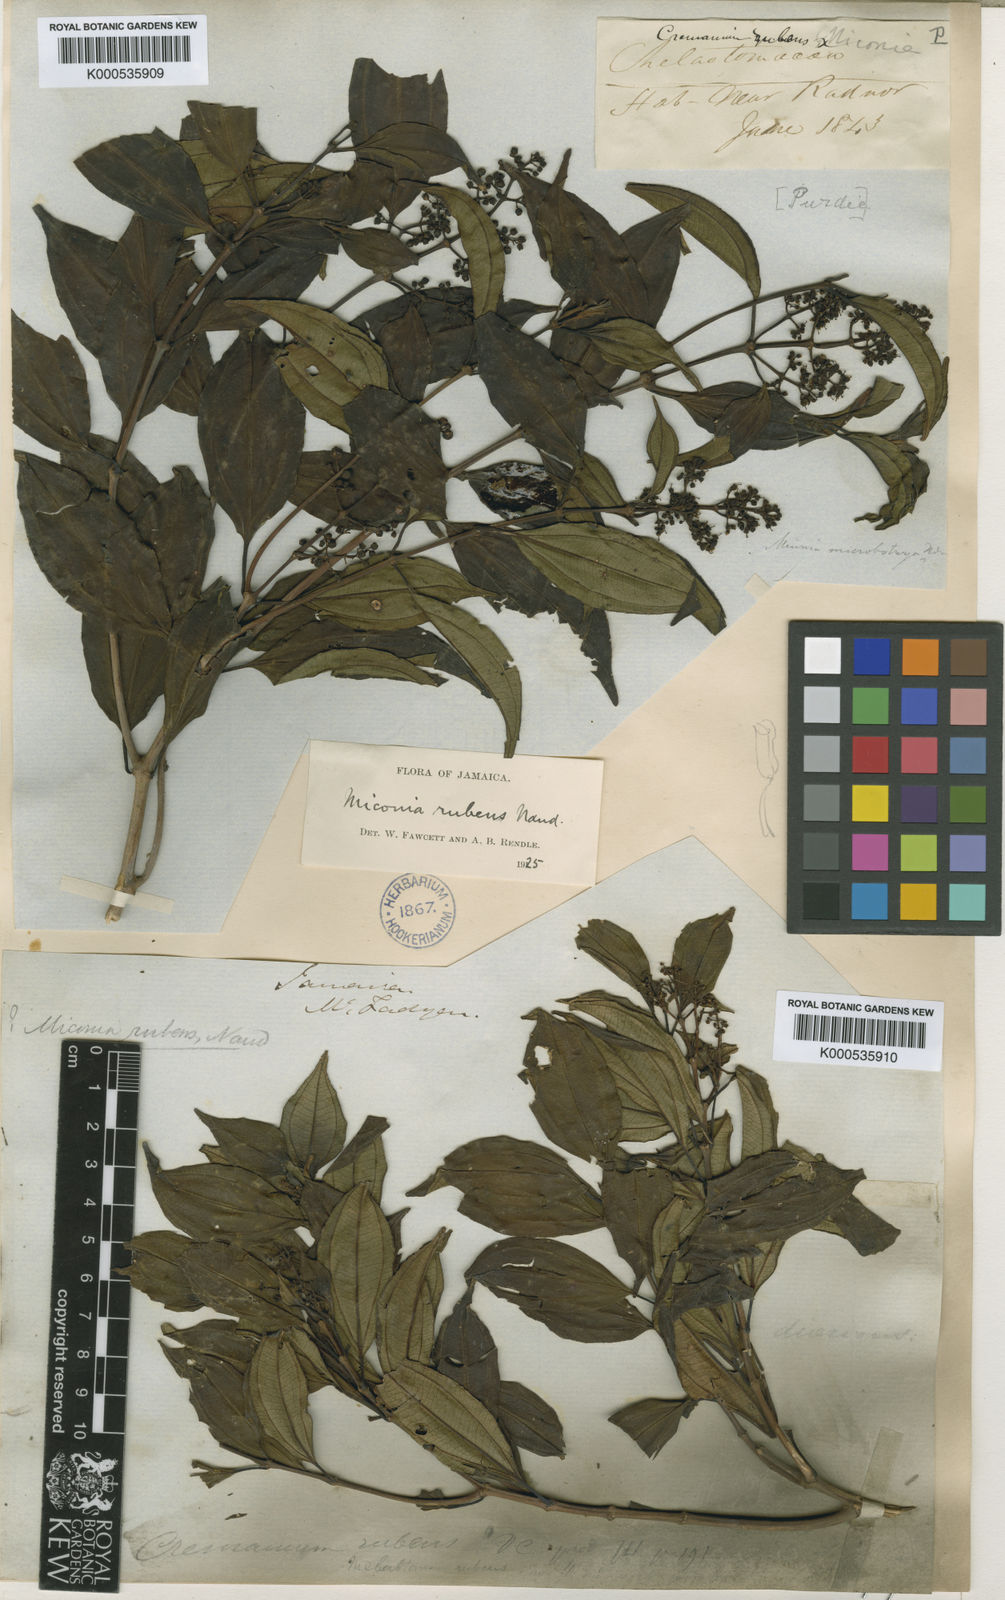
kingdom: Plantae
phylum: Tracheophyta
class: Magnoliopsida
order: Myrtales
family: Melastomataceae
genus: Miconia
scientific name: Miconia rubens
